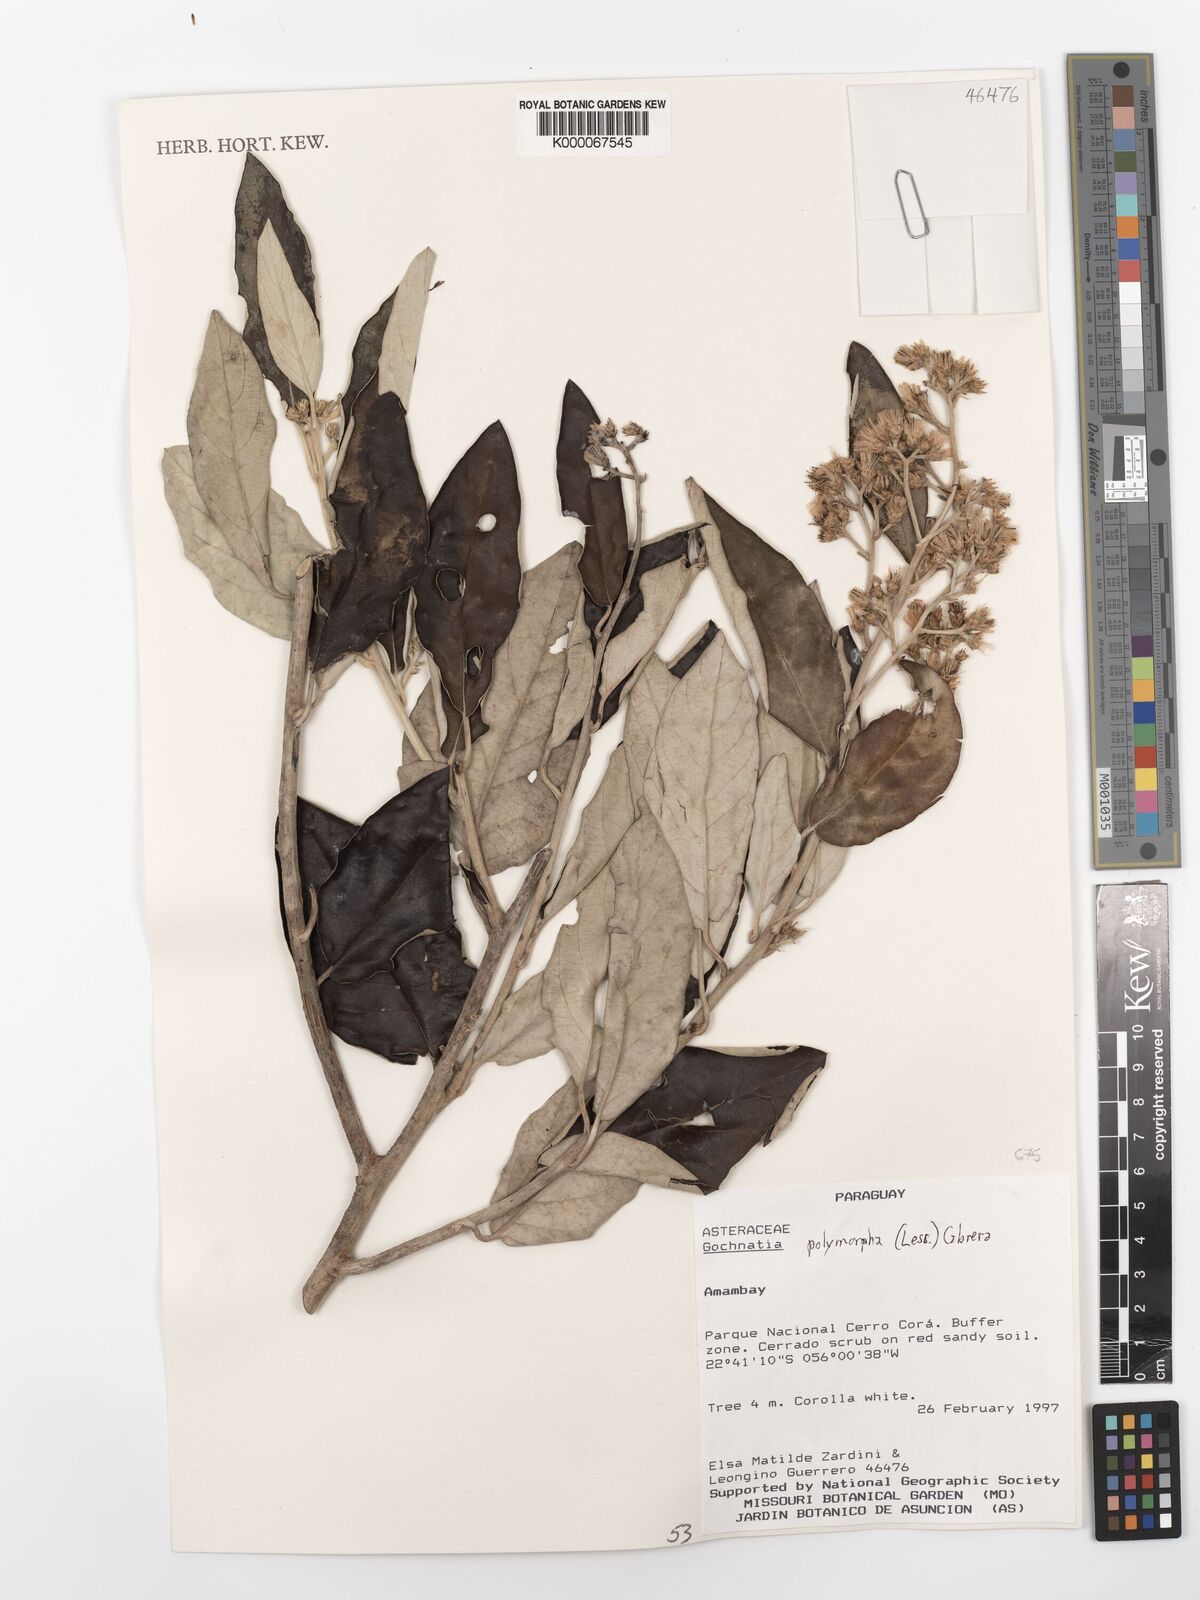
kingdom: Plantae
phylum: Tracheophyta
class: Magnoliopsida
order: Asterales
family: Asteraceae
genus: Moquiniastrum
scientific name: Moquiniastrum polymorphum
